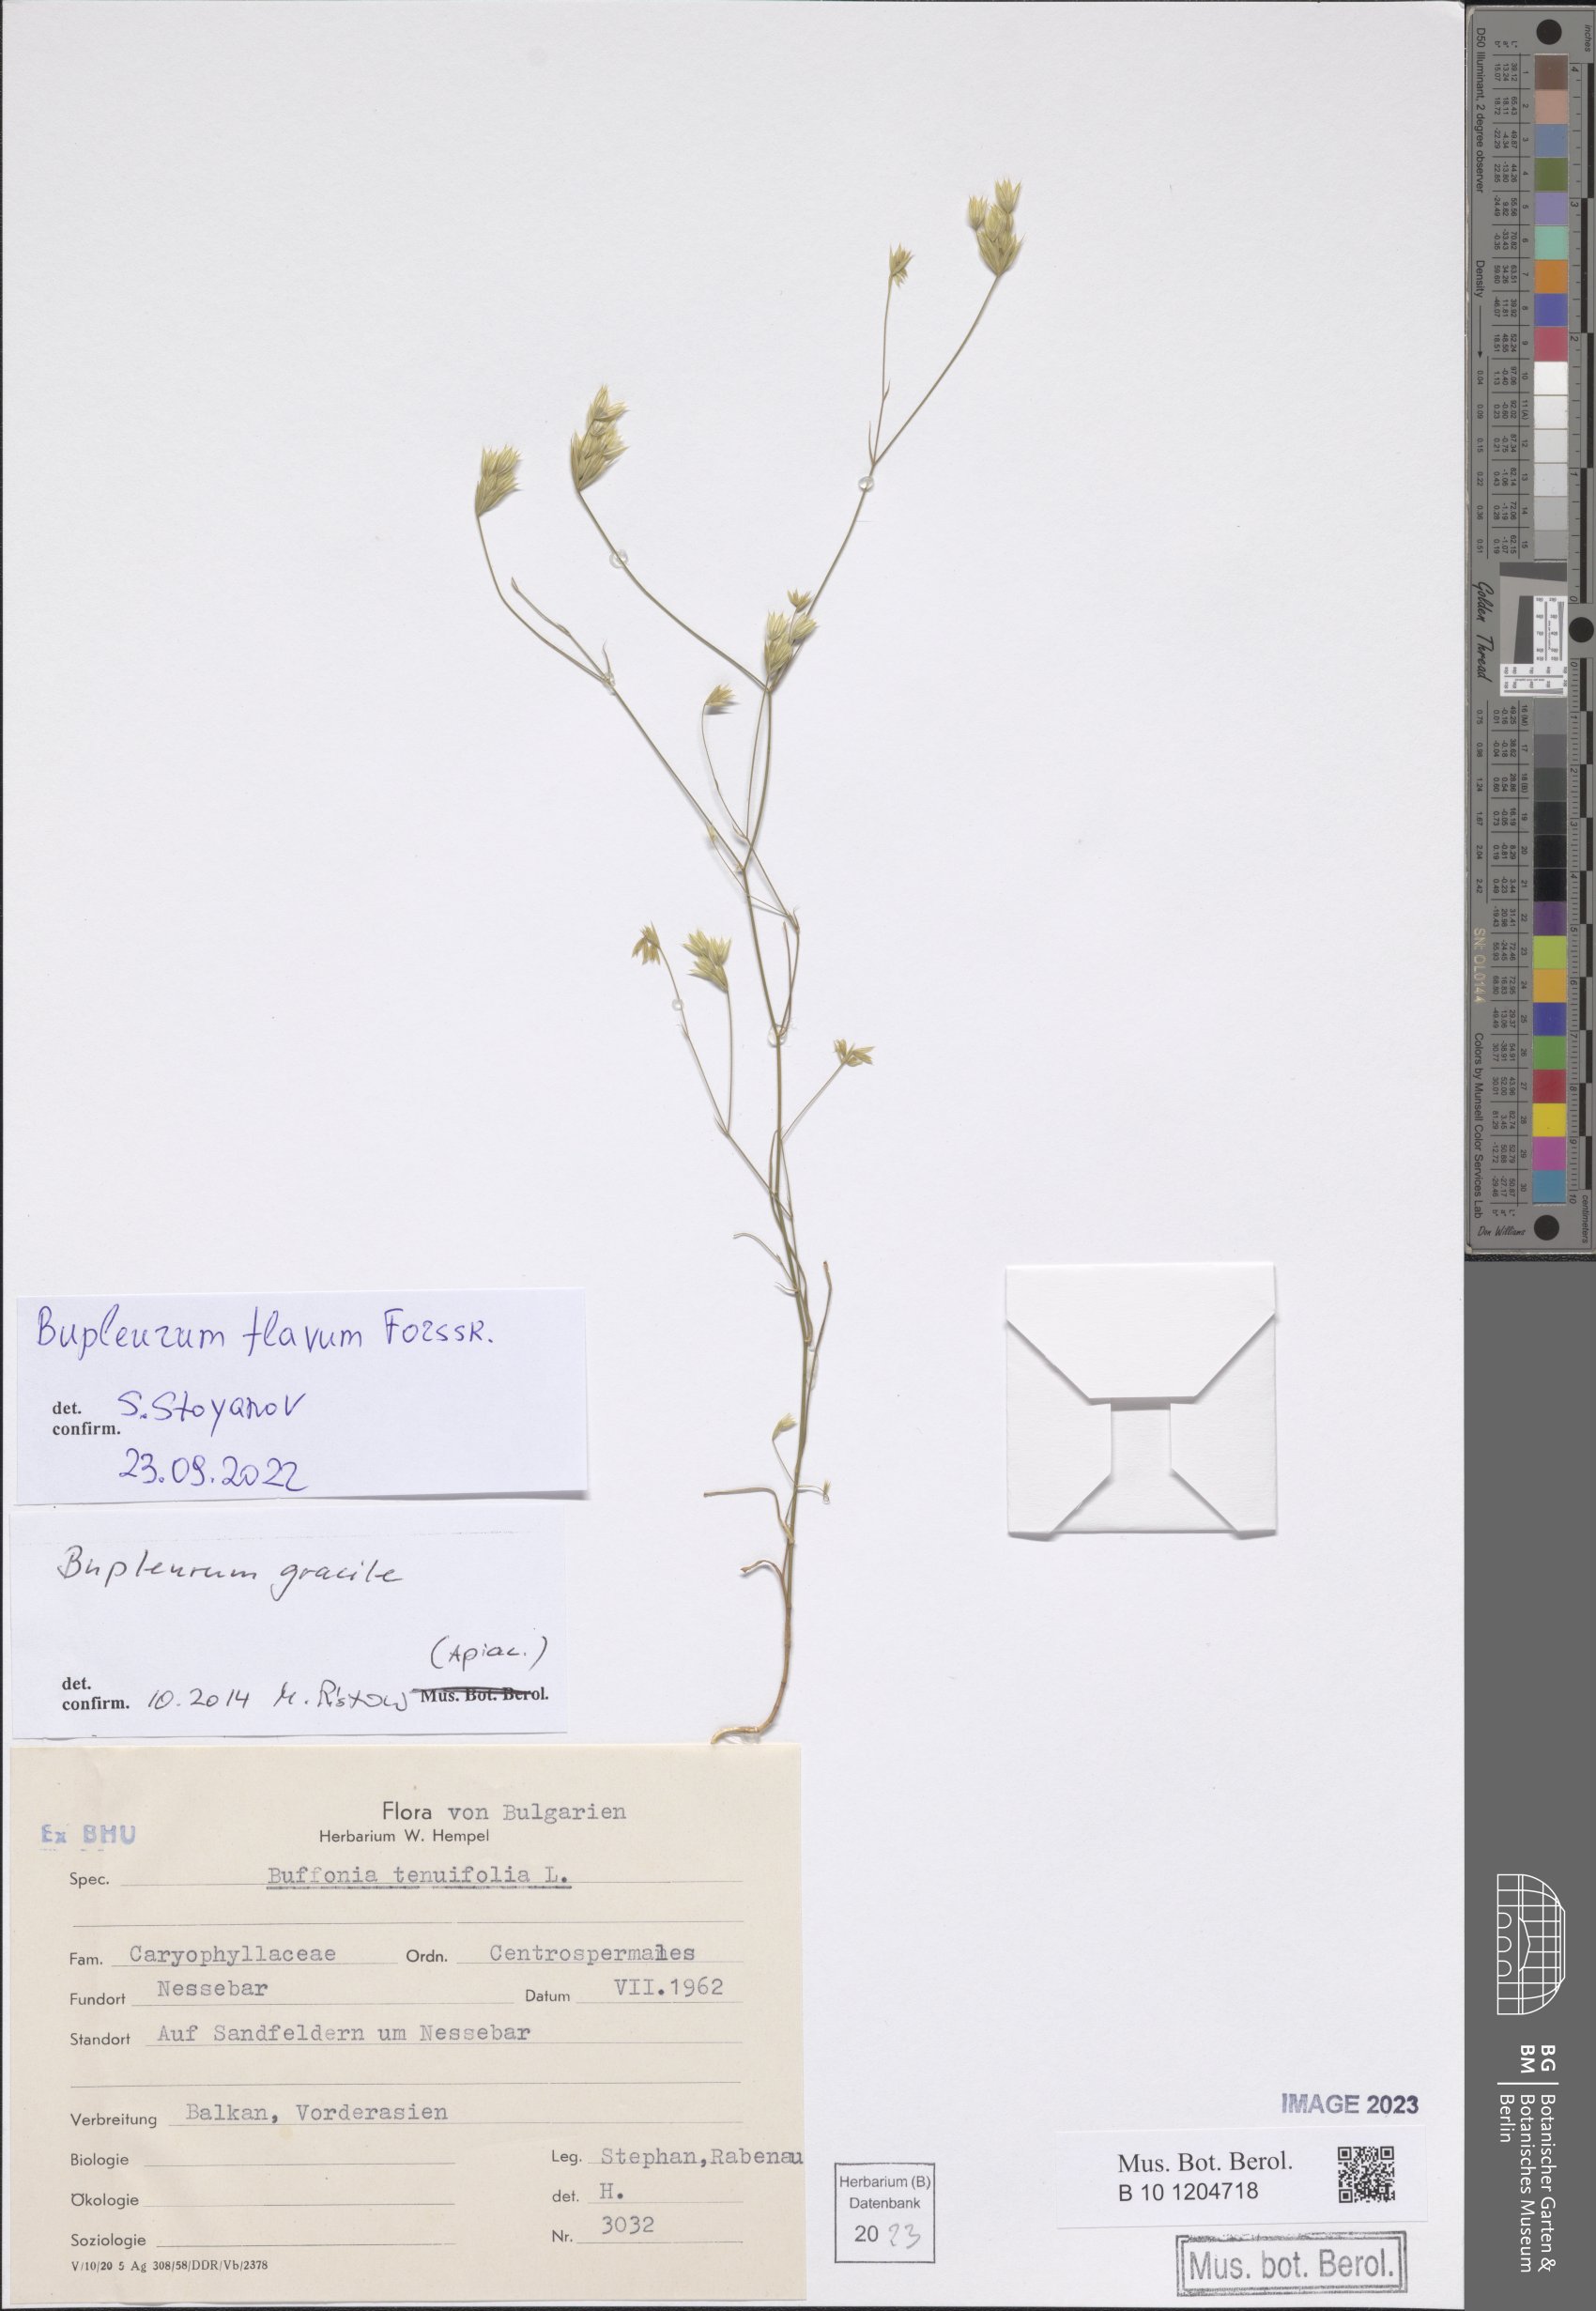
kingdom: Plantae
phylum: Tracheophyta
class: Magnoliopsida
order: Apiales
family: Apiaceae
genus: Bupleurum
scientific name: Bupleurum flavum
